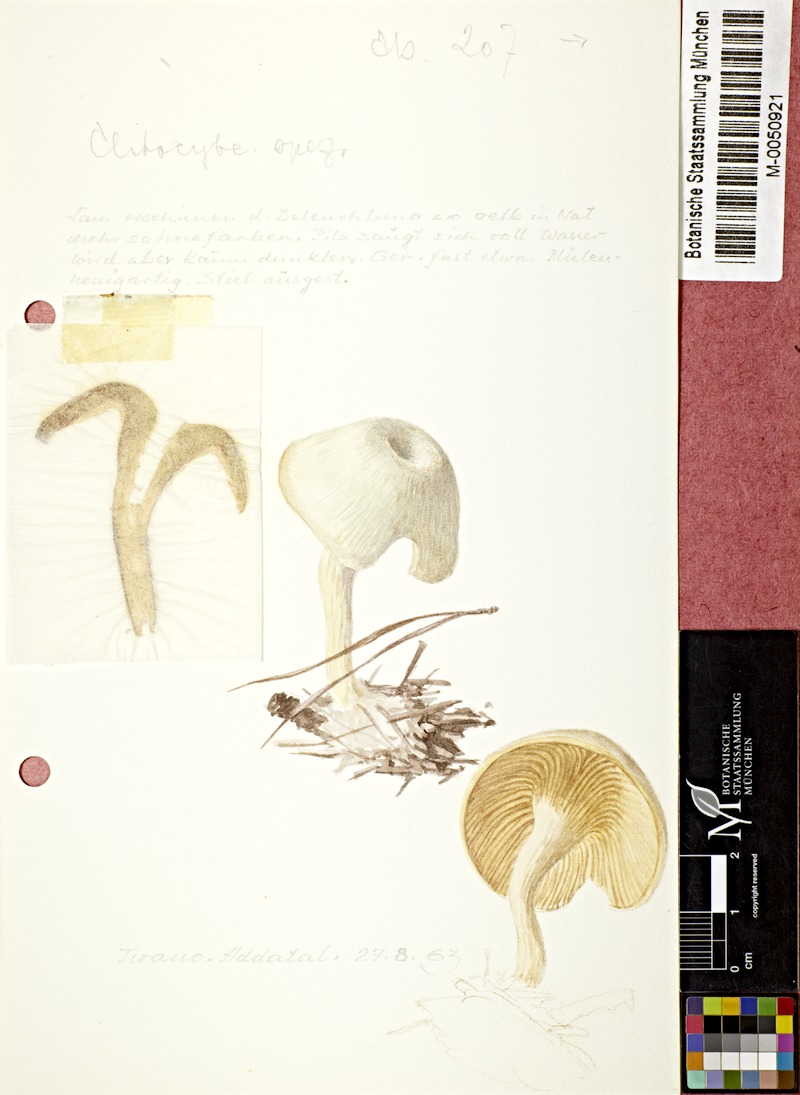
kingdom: Fungi
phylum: Basidiomycota
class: Agaricomycetes
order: Agaricales
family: Tricholomataceae
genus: Clitocybe
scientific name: Clitocybe
